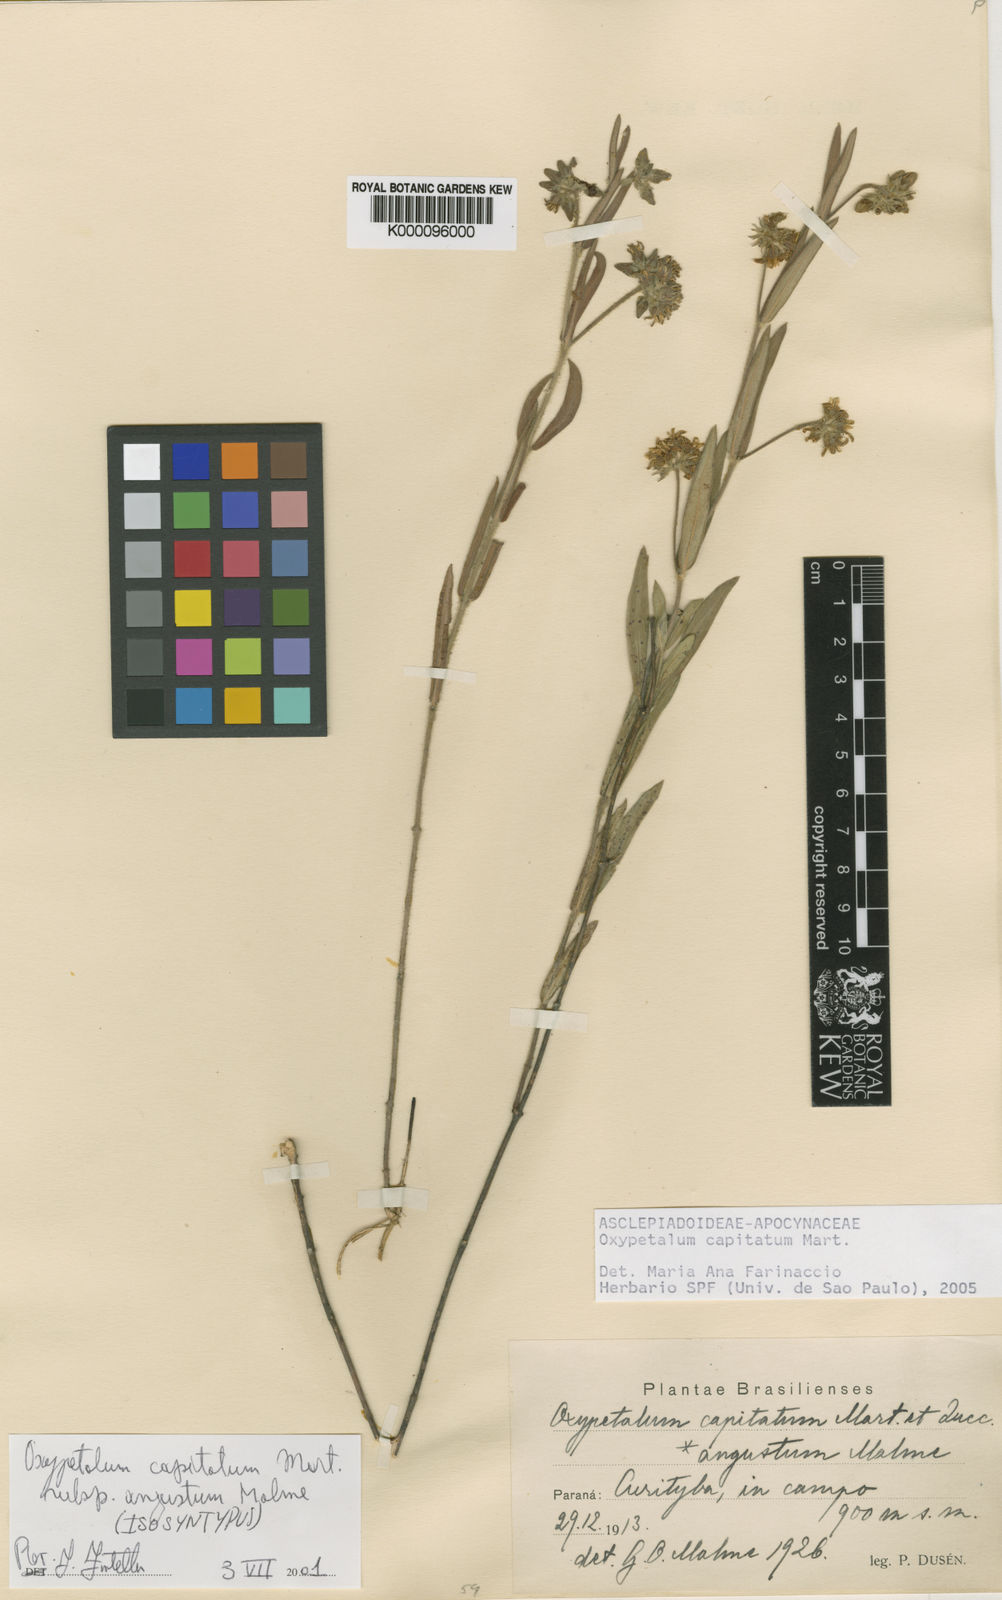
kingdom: Plantae
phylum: Tracheophyta
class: Magnoliopsida
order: Gentianales
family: Apocynaceae
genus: Oxypetalum
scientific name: Oxypetalum capitatum
